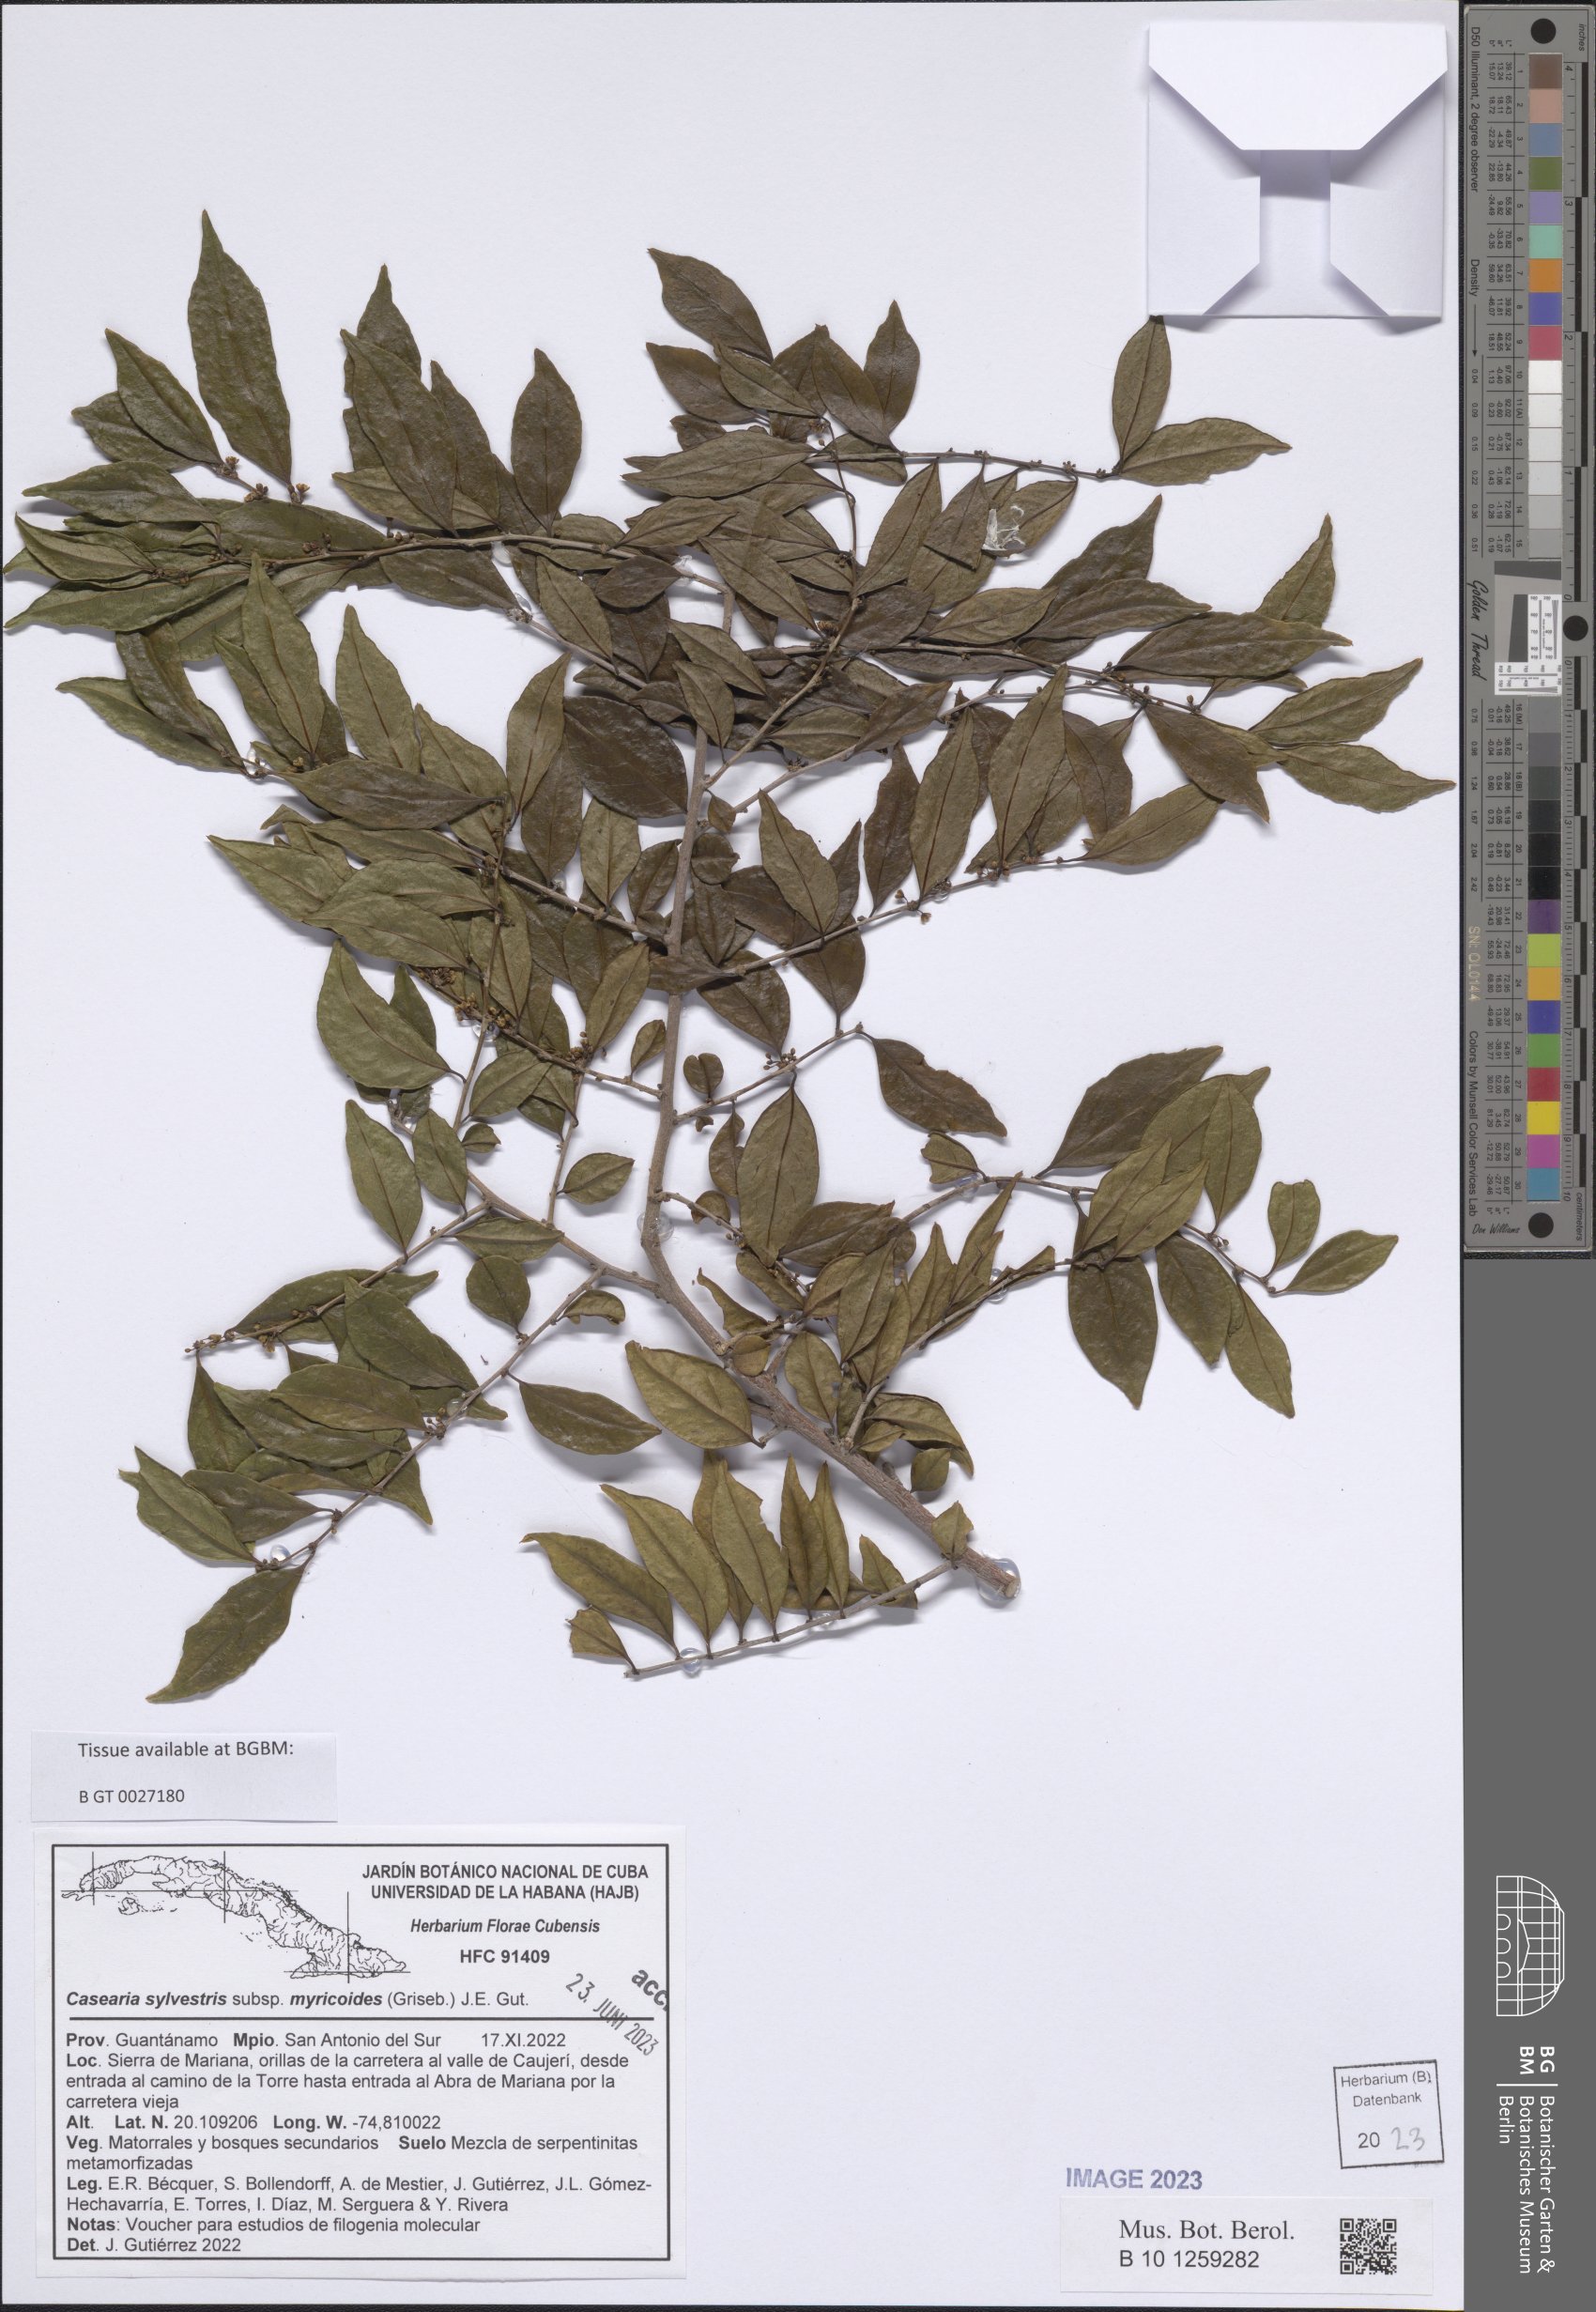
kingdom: Plantae
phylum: Tracheophyta
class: Magnoliopsida
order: Malpighiales
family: Salicaceae
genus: Casearia
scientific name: Casearia sylvestris
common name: Wild sage
